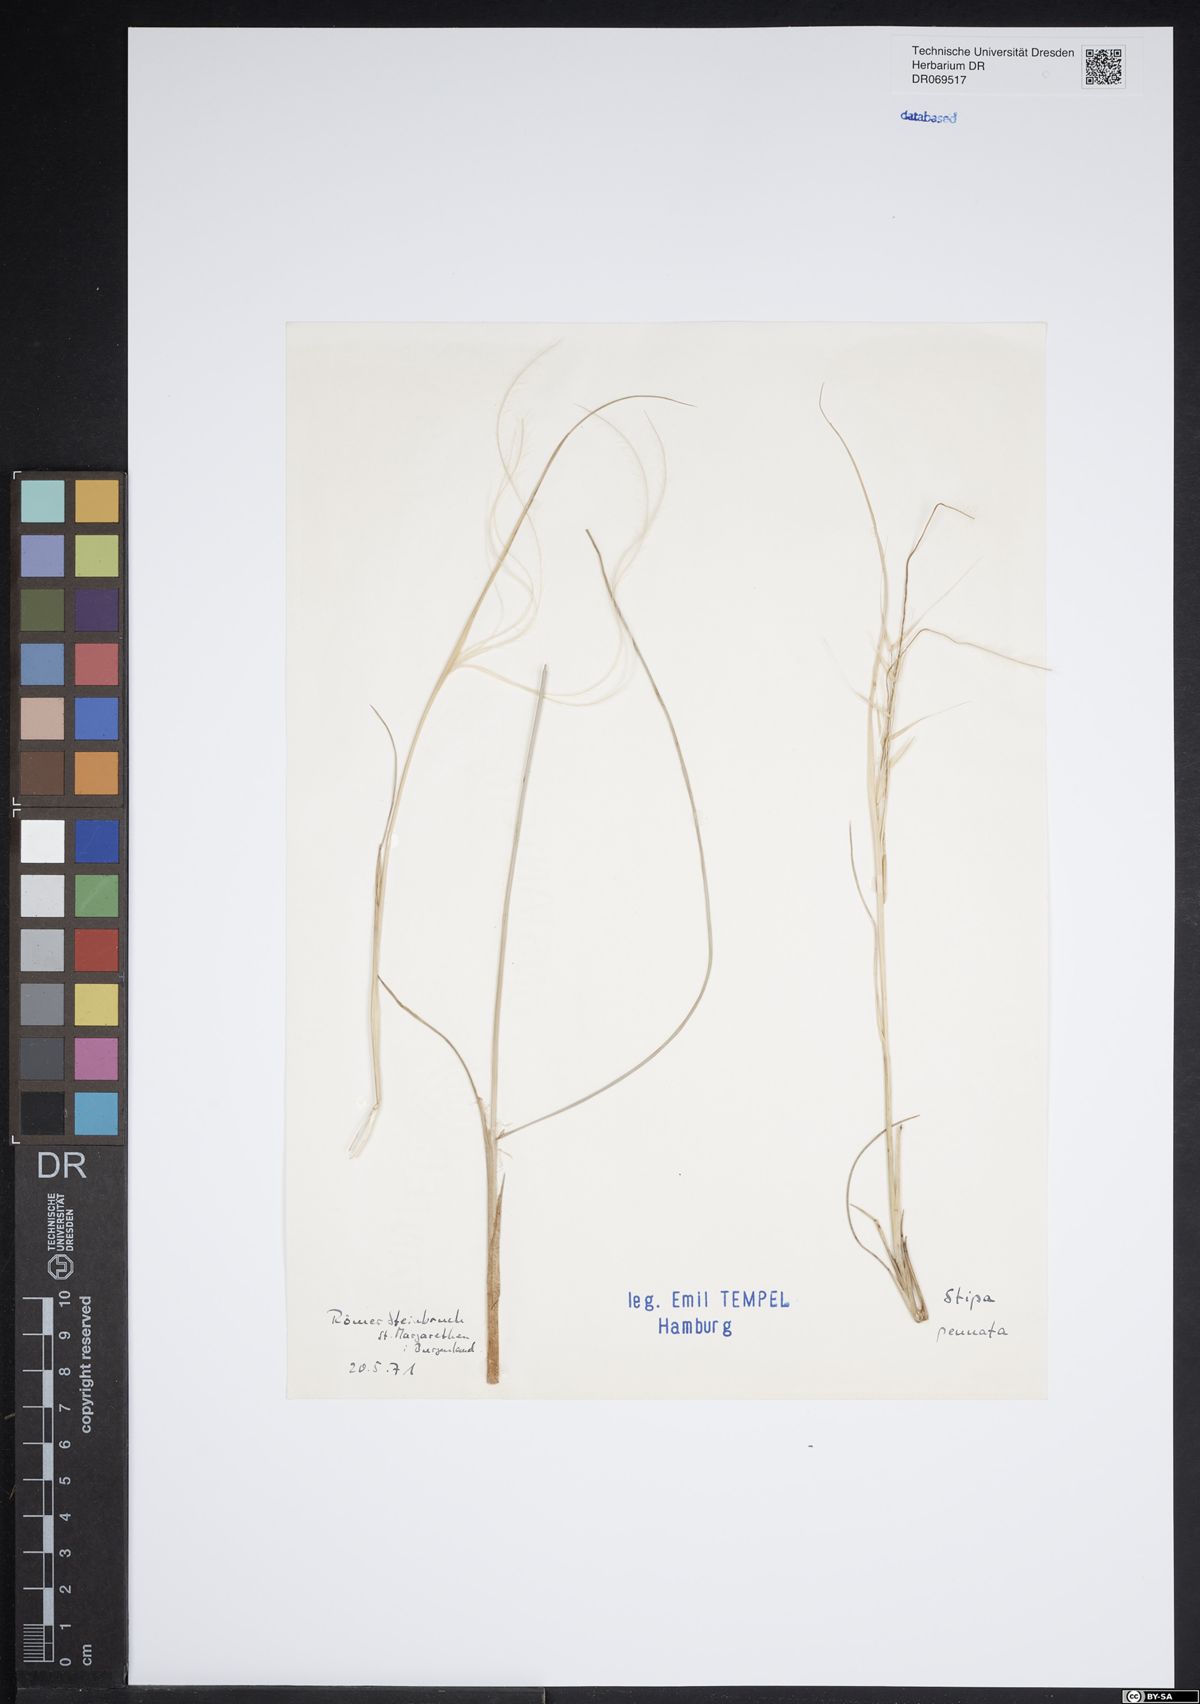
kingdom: Plantae
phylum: Tracheophyta
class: Liliopsida
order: Poales
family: Poaceae
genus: Stipa
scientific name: Stipa pennata
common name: European feather grass
